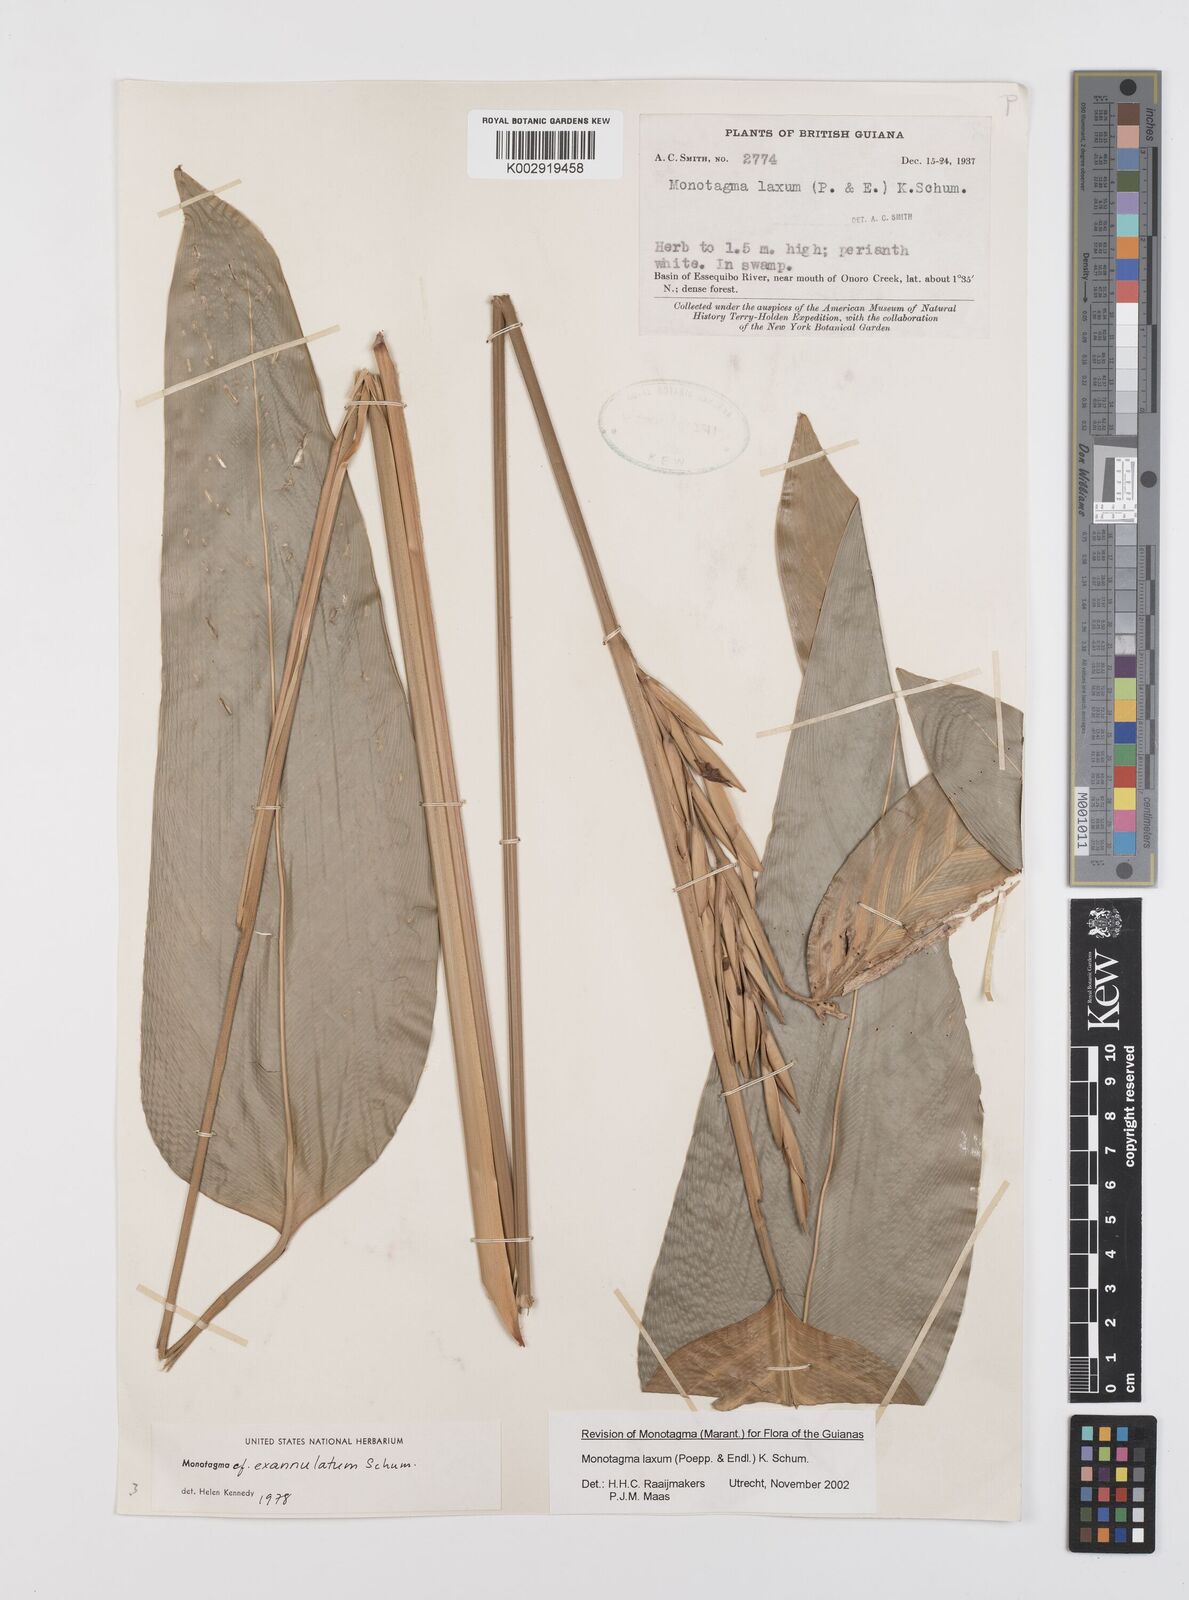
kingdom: Plantae
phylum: Tracheophyta
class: Liliopsida
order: Zingiberales
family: Marantaceae
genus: Monotagma
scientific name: Monotagma laxum
